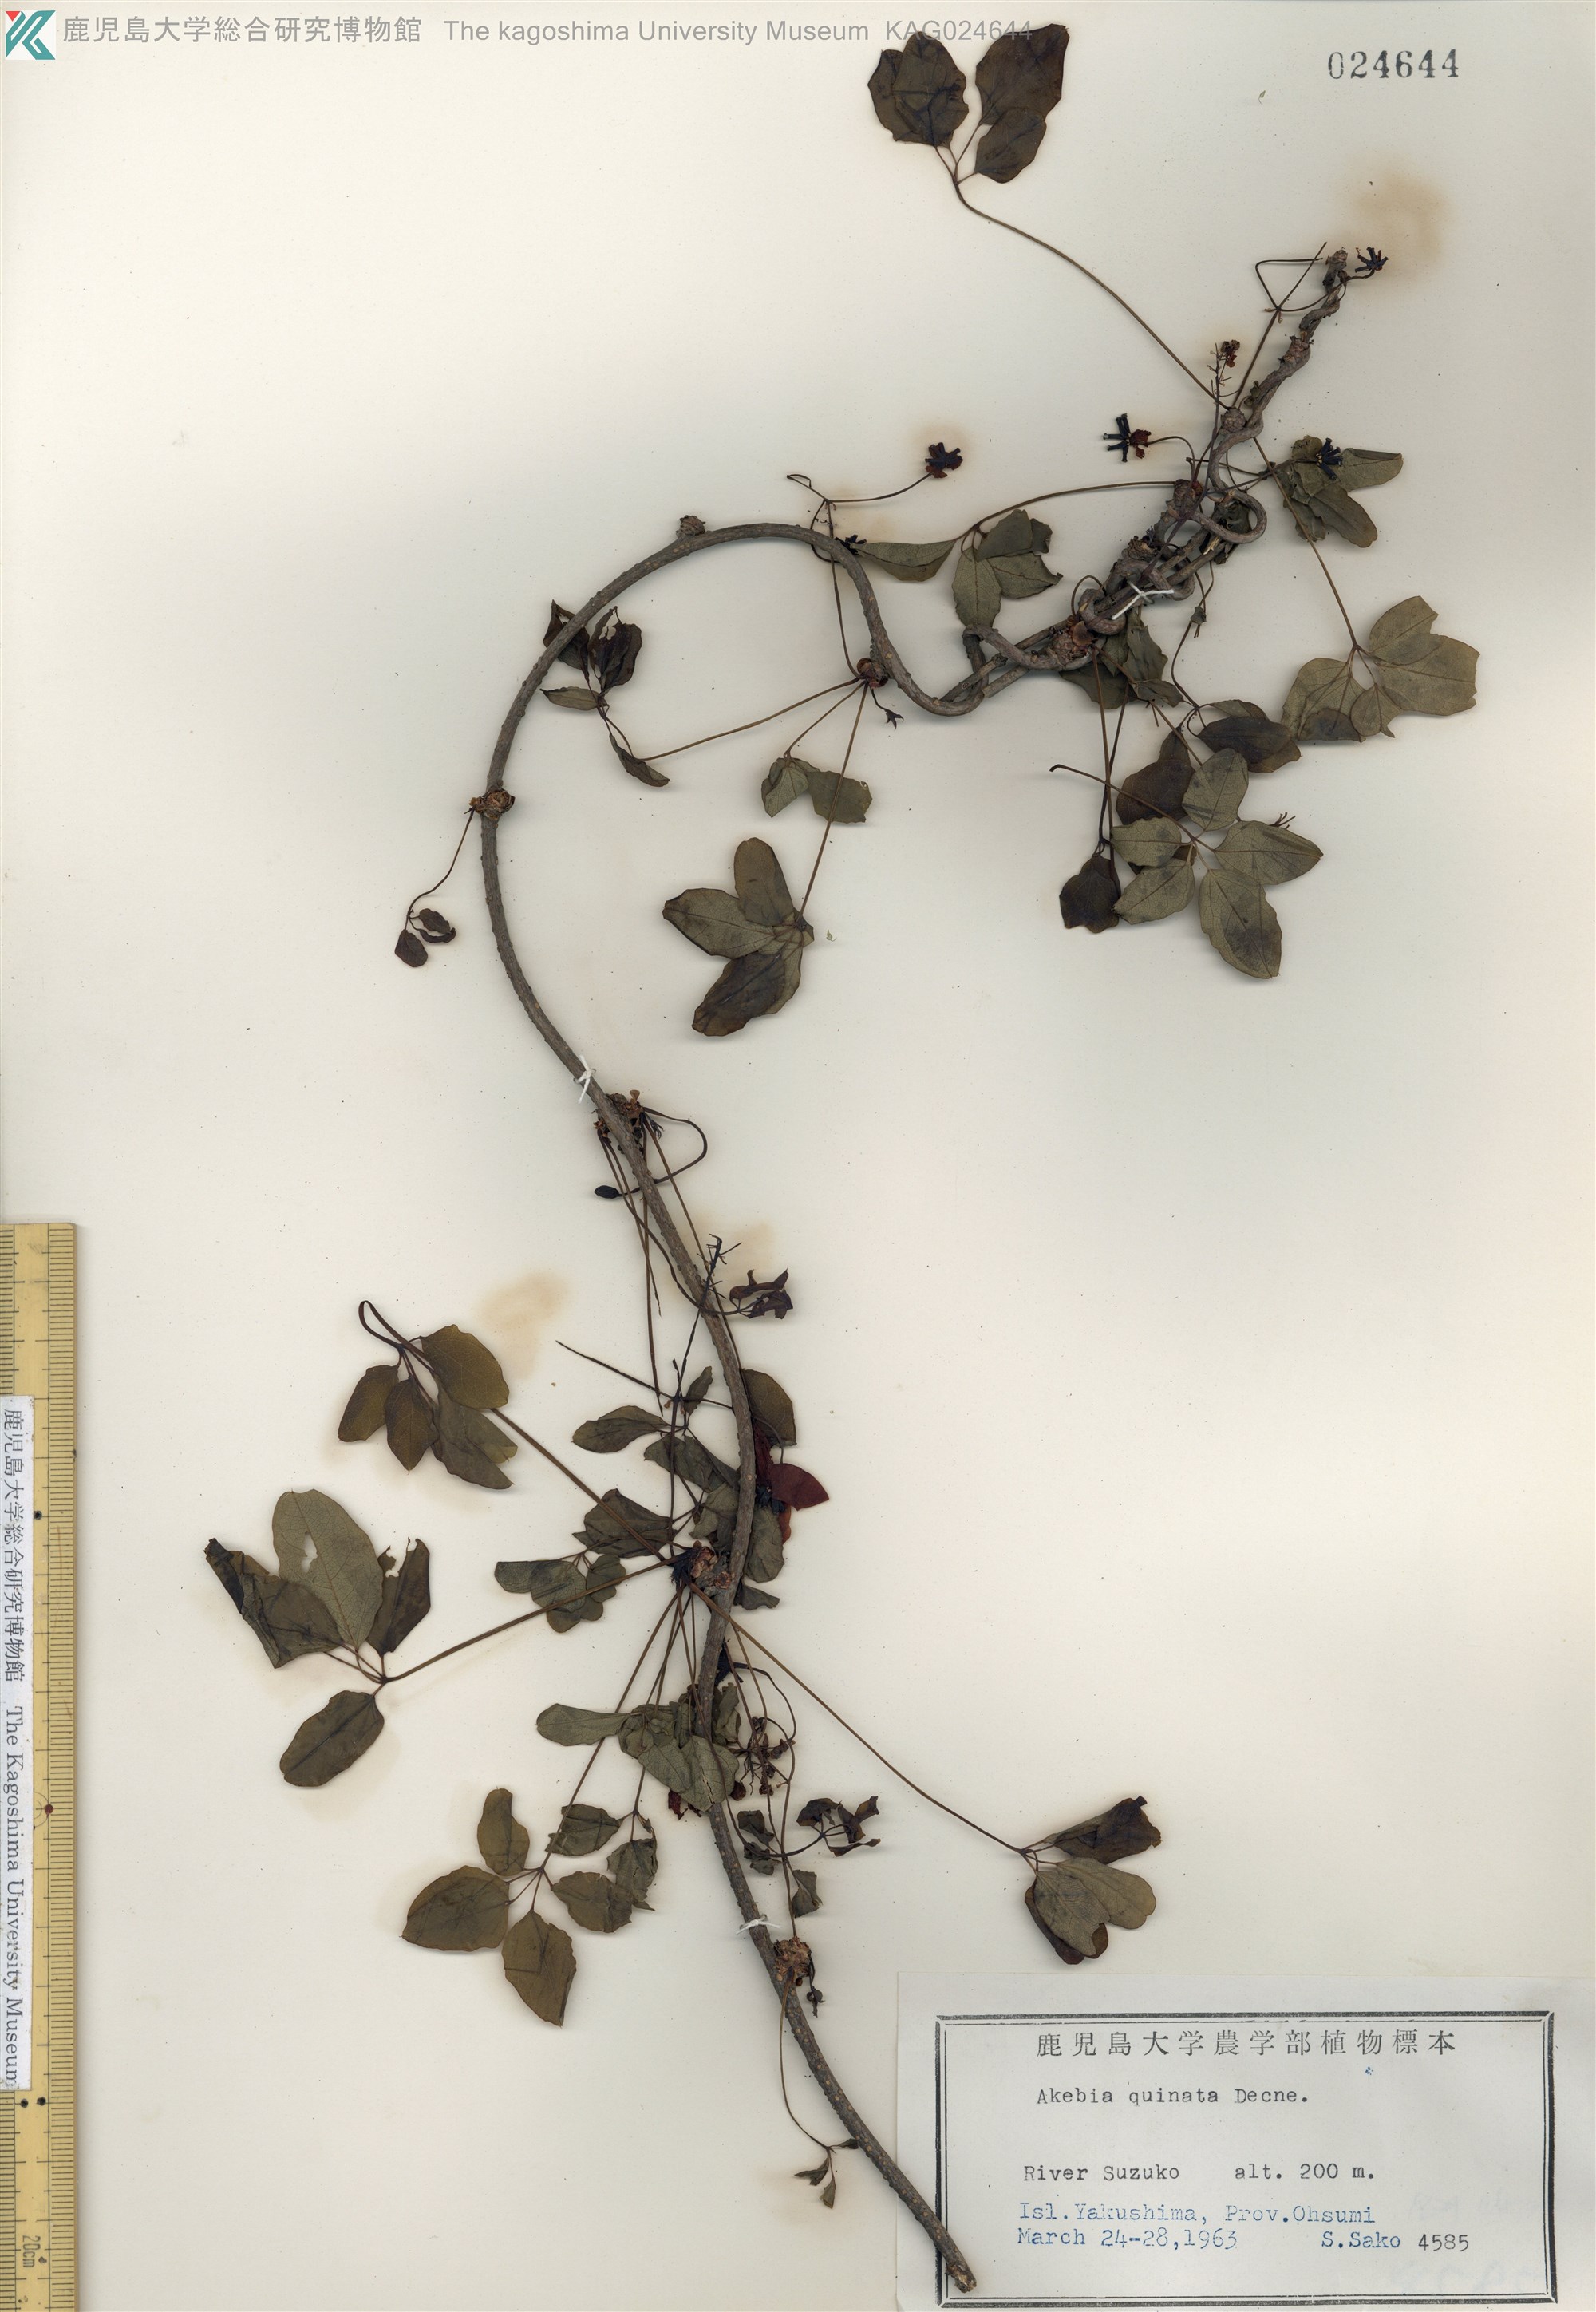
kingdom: Plantae
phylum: Tracheophyta
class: Magnoliopsida
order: Ranunculales
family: Lardizabalaceae
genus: Akebia
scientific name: Akebia quinata
